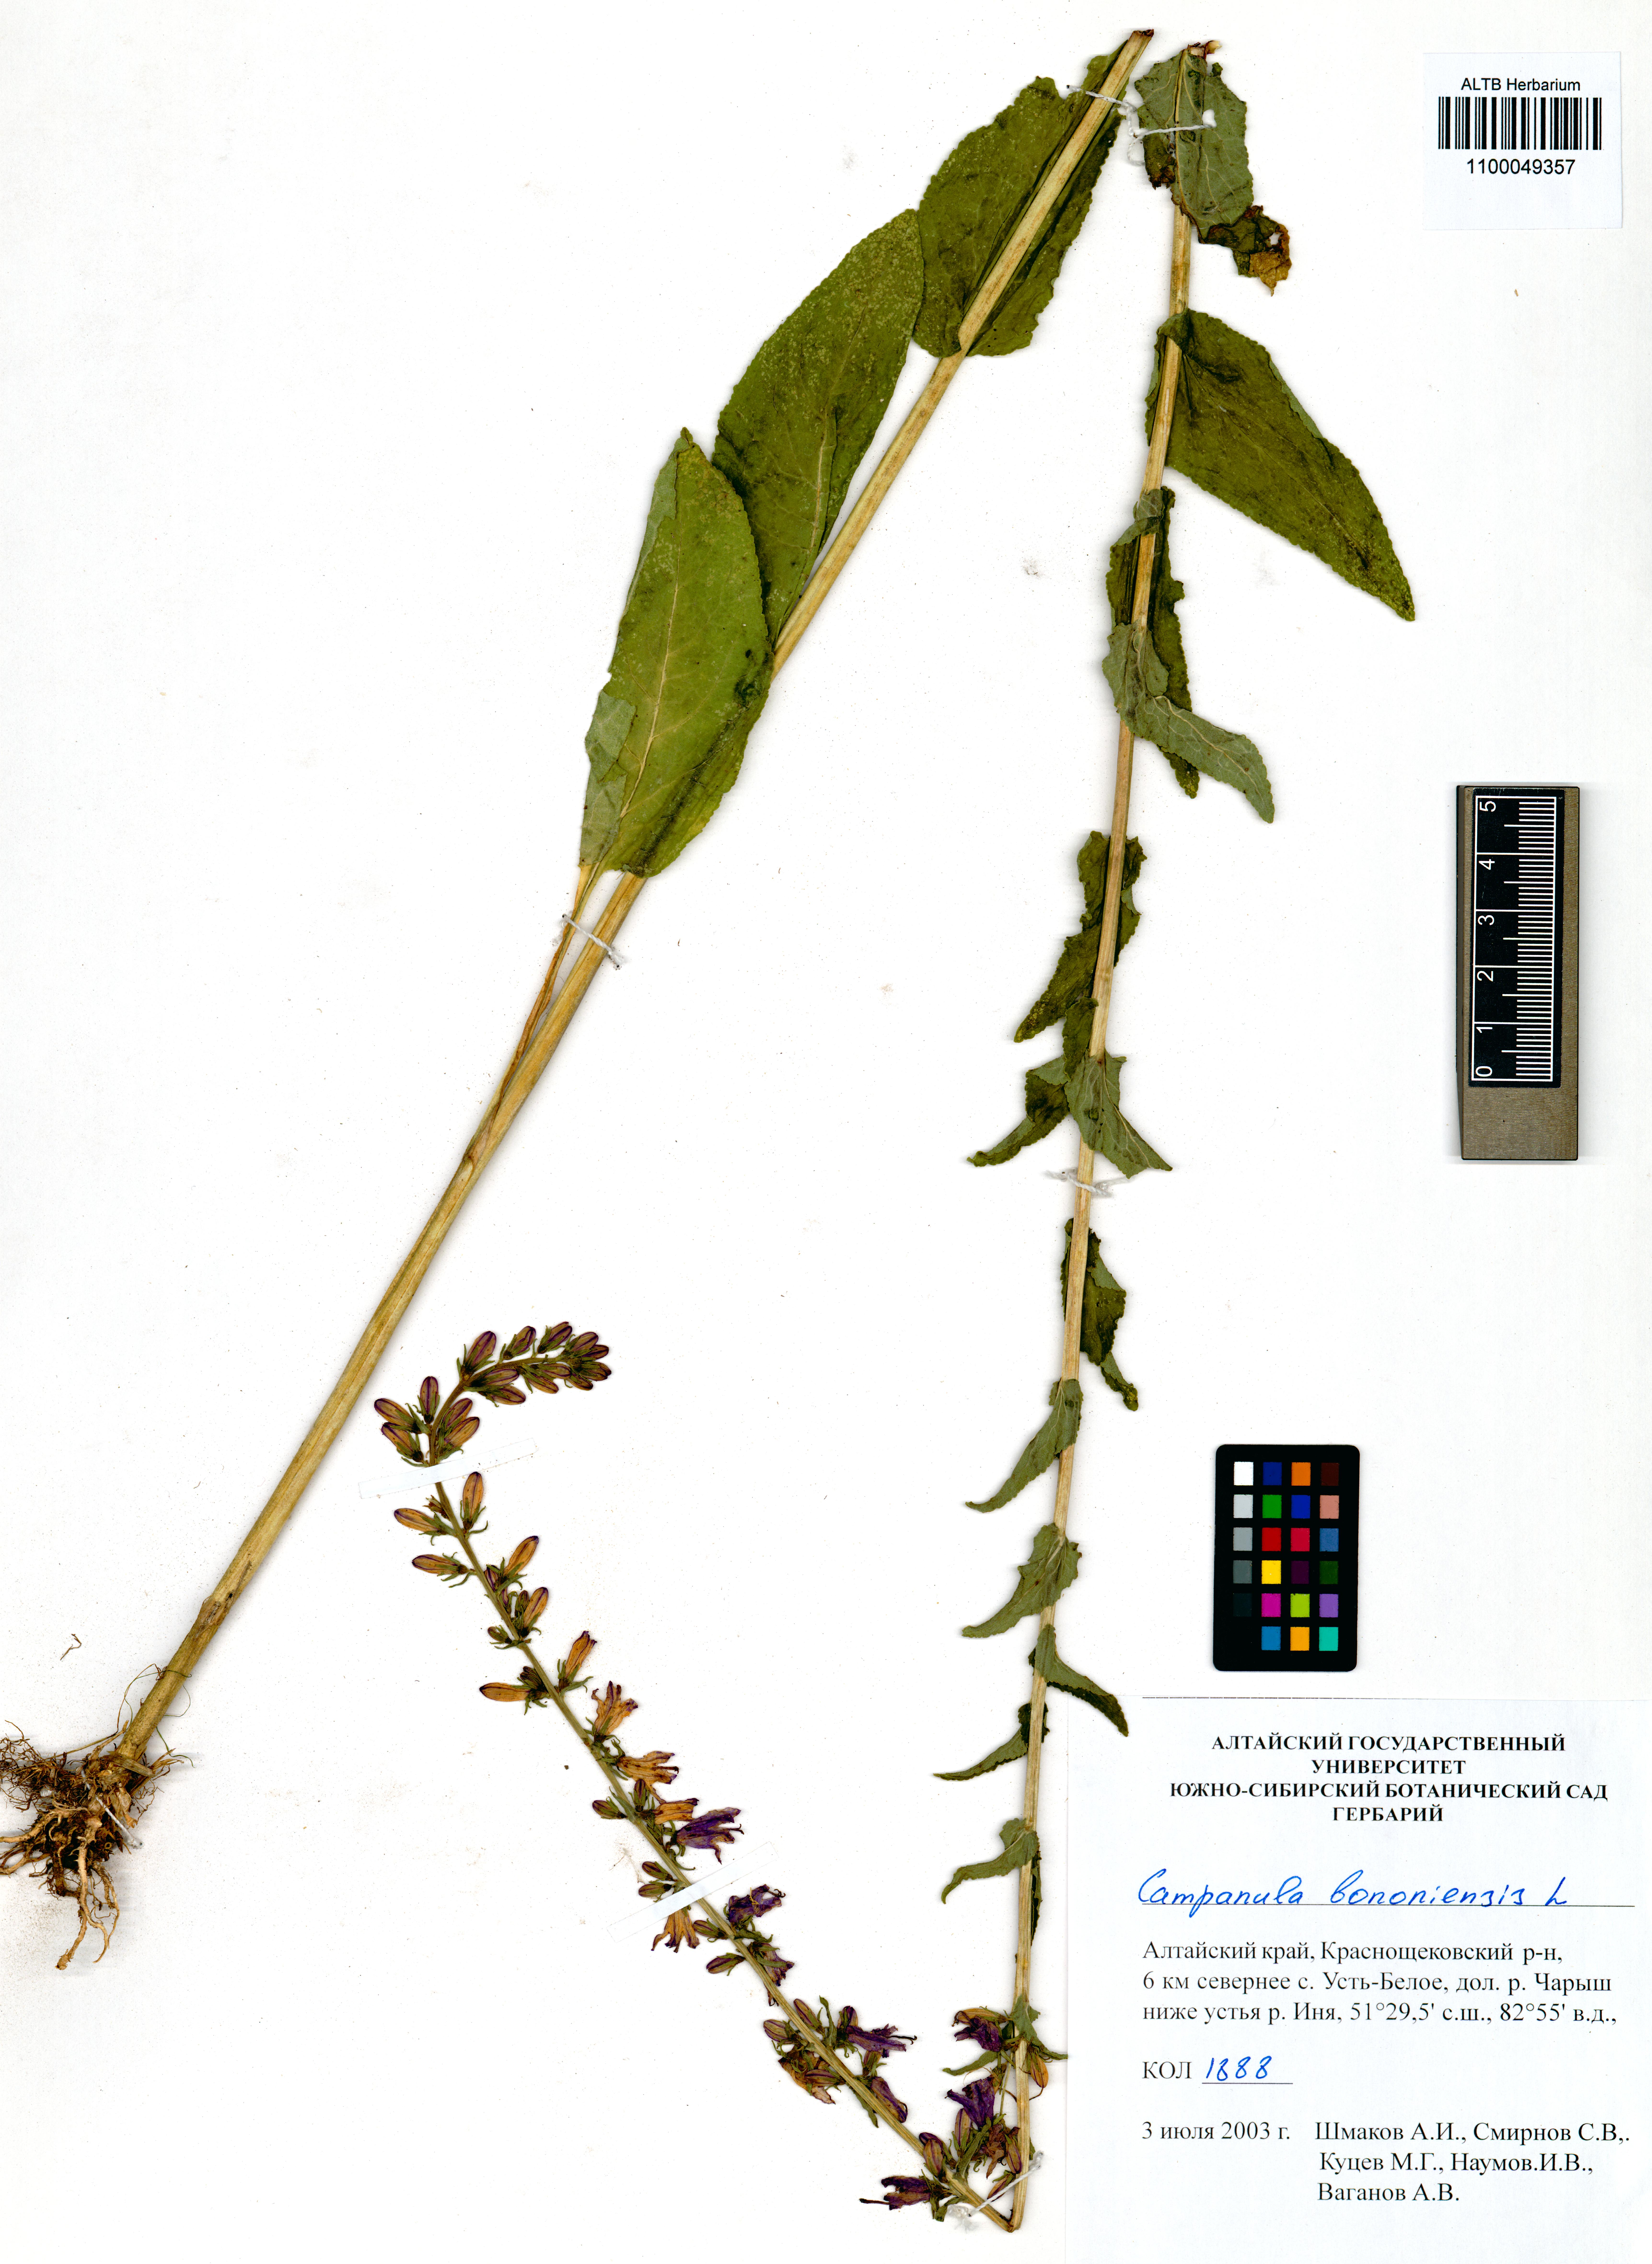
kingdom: Plantae
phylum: Tracheophyta
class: Magnoliopsida
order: Asterales
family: Campanulaceae
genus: Campanula
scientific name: Campanula bononiensis
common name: Pale bellflower
